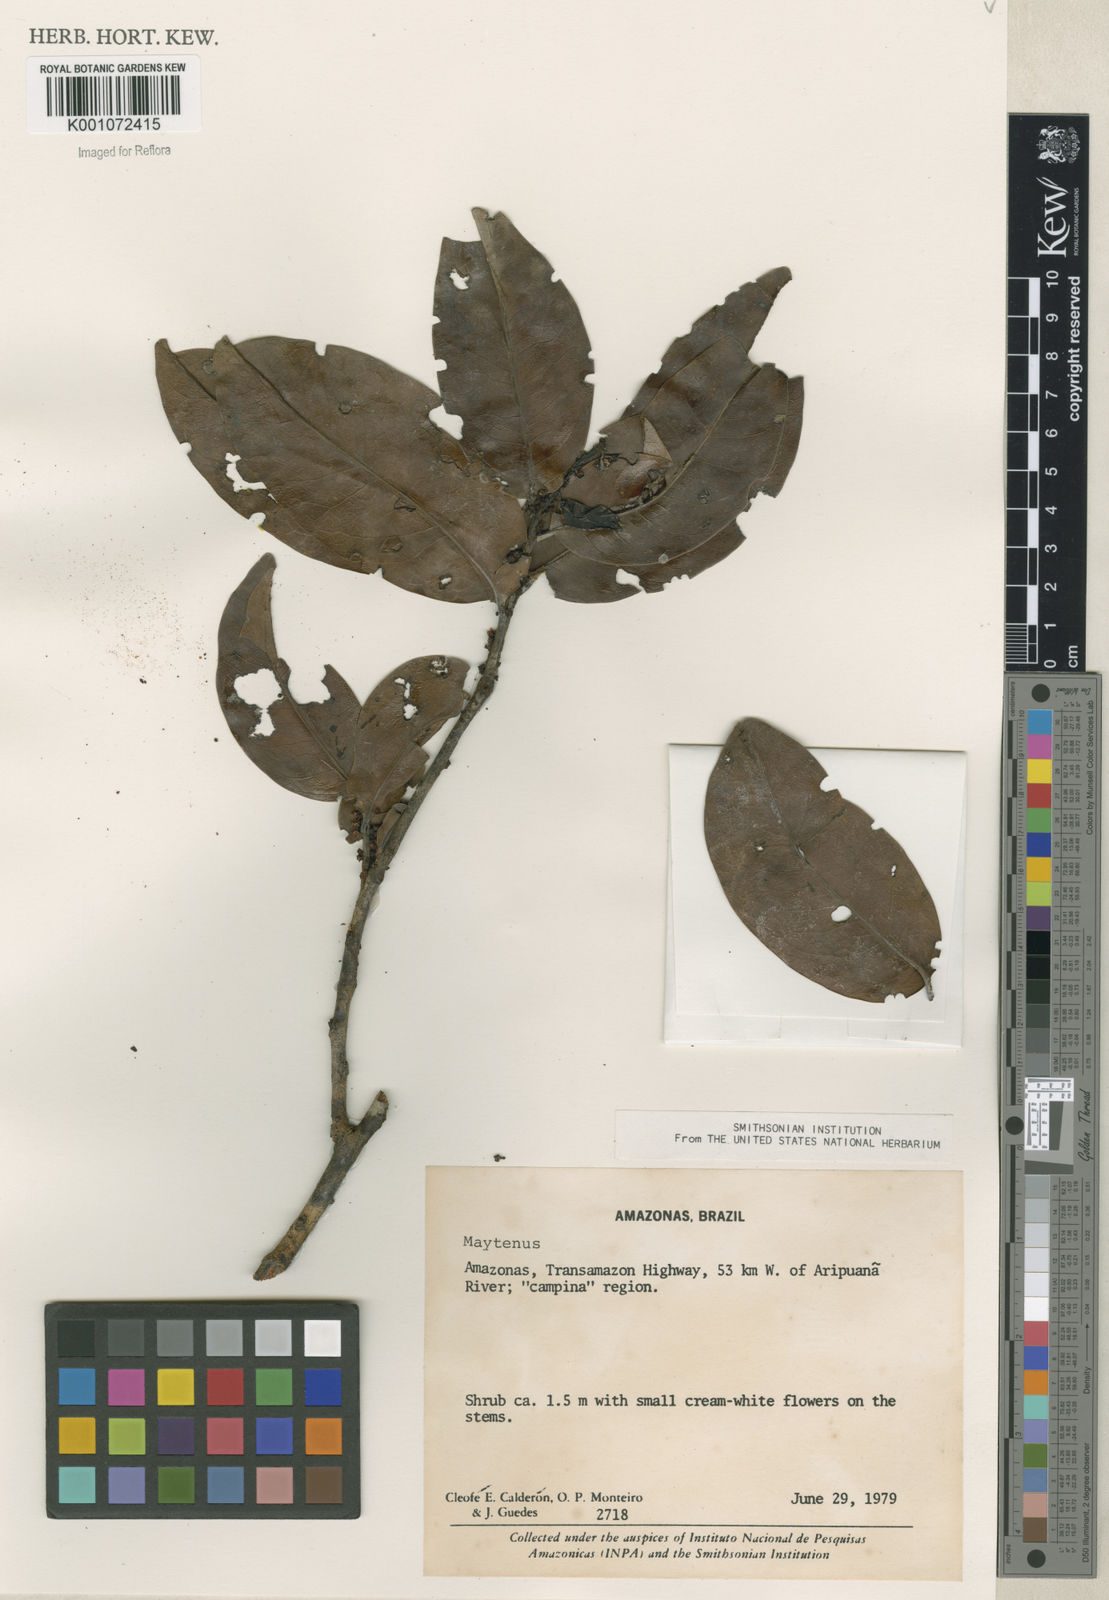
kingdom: Plantae
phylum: Tracheophyta
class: Magnoliopsida
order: Celastrales
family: Celastraceae
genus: Maytenus
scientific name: Maytenus
